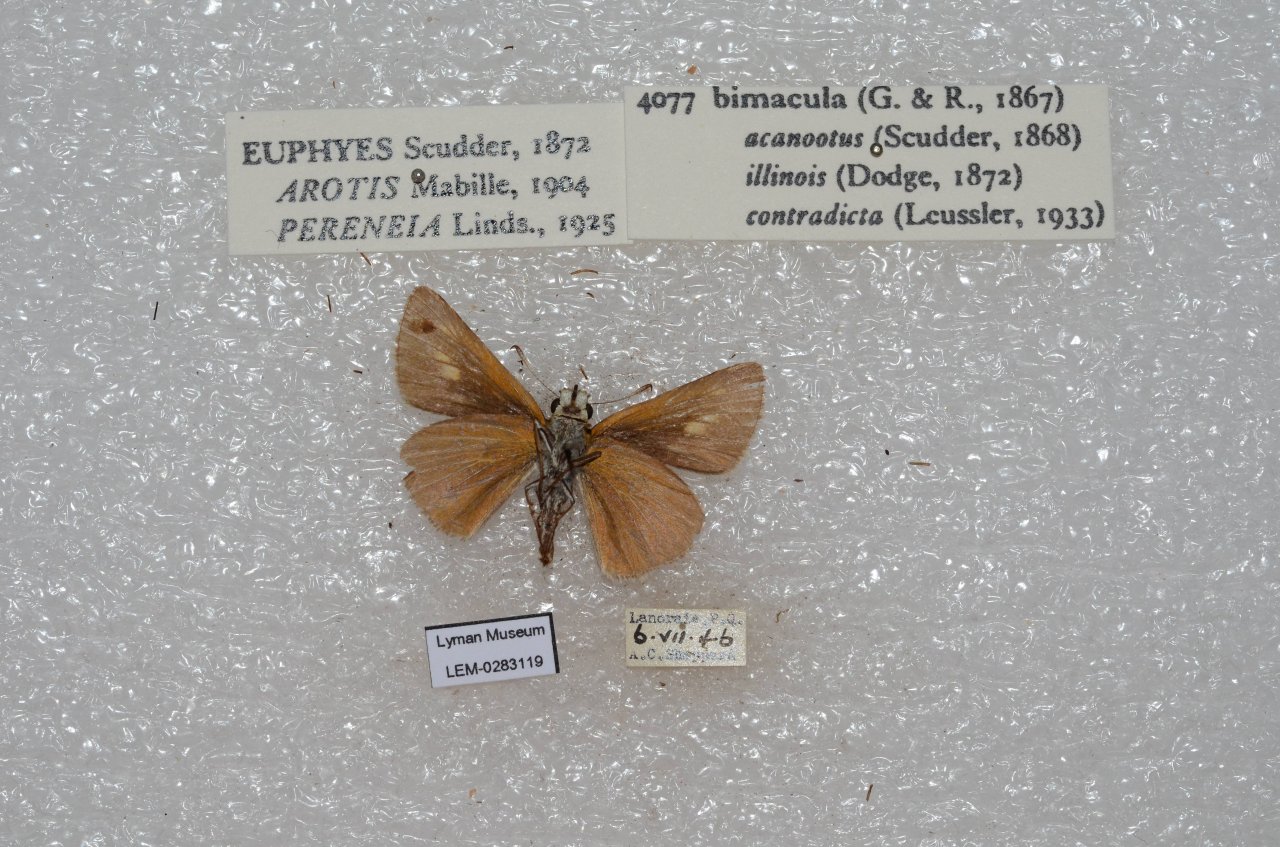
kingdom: Animalia
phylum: Arthropoda
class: Insecta
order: Lepidoptera
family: Hesperiidae
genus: Euphyes
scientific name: Euphyes bimacula
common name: Two-spotted Skipper
